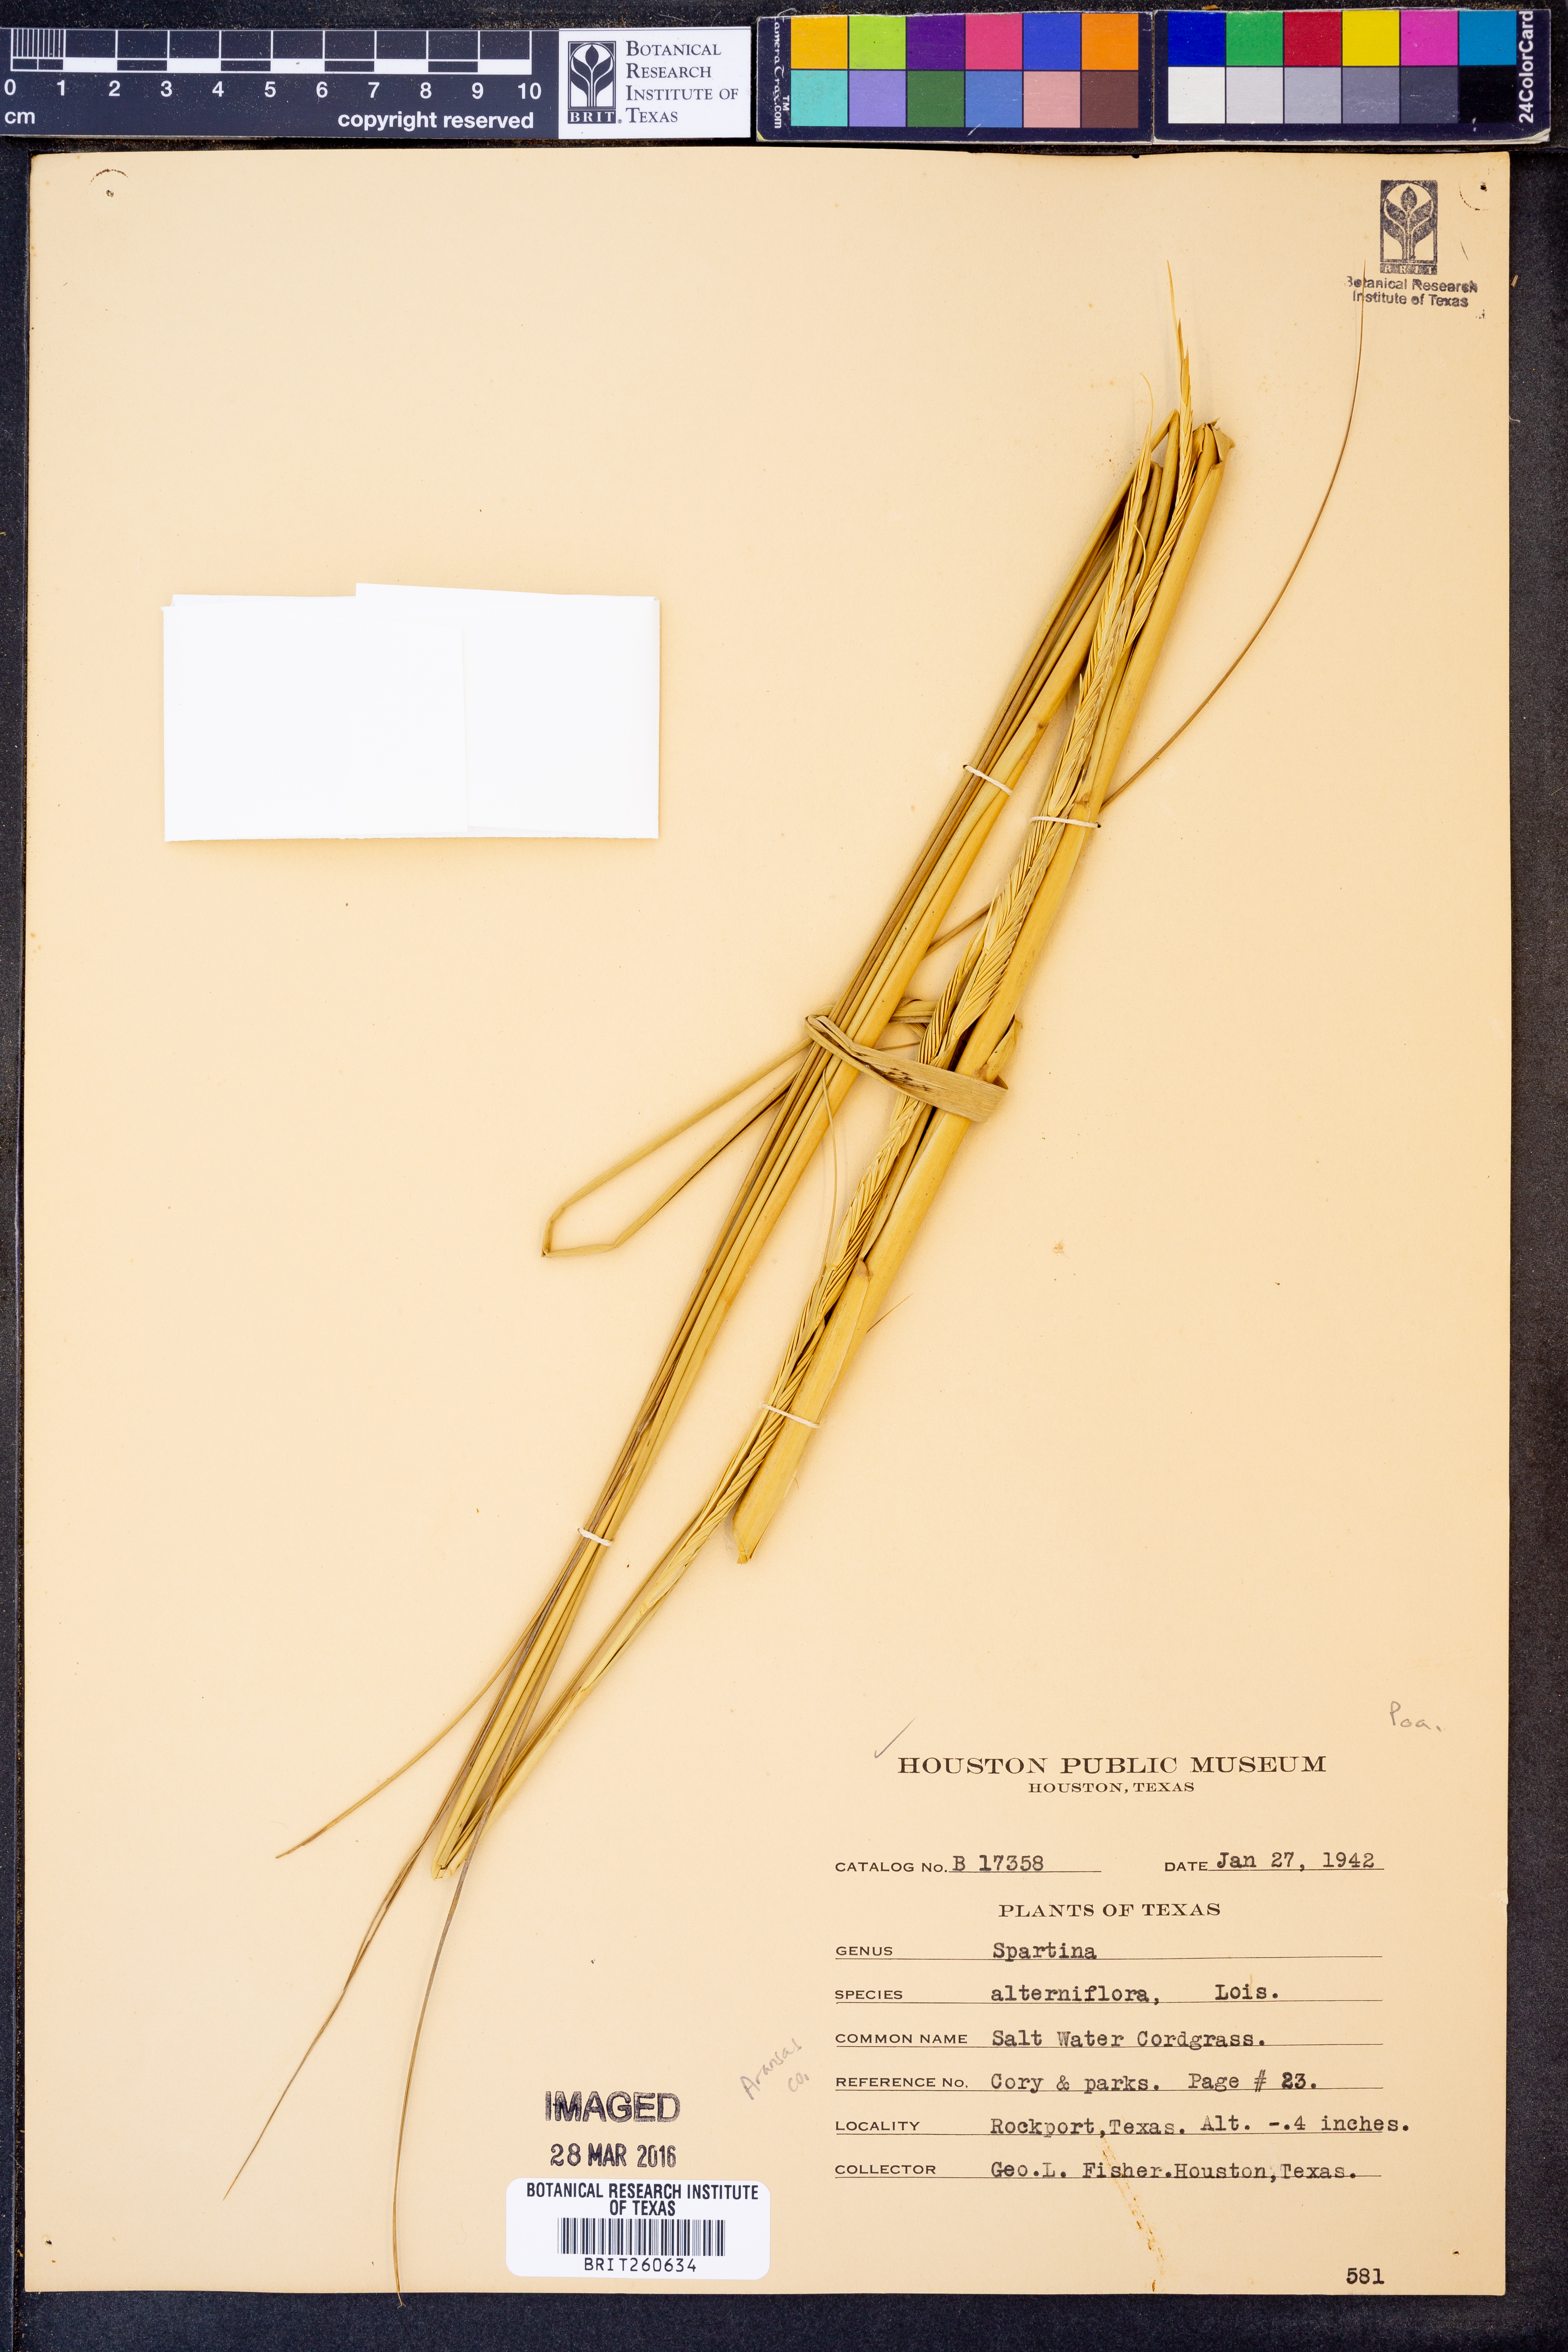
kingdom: Plantae
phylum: Tracheophyta
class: Liliopsida
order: Poales
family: Poaceae
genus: Sporobolus
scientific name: Sporobolus alterniflorus
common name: Atlantic cordgrass
